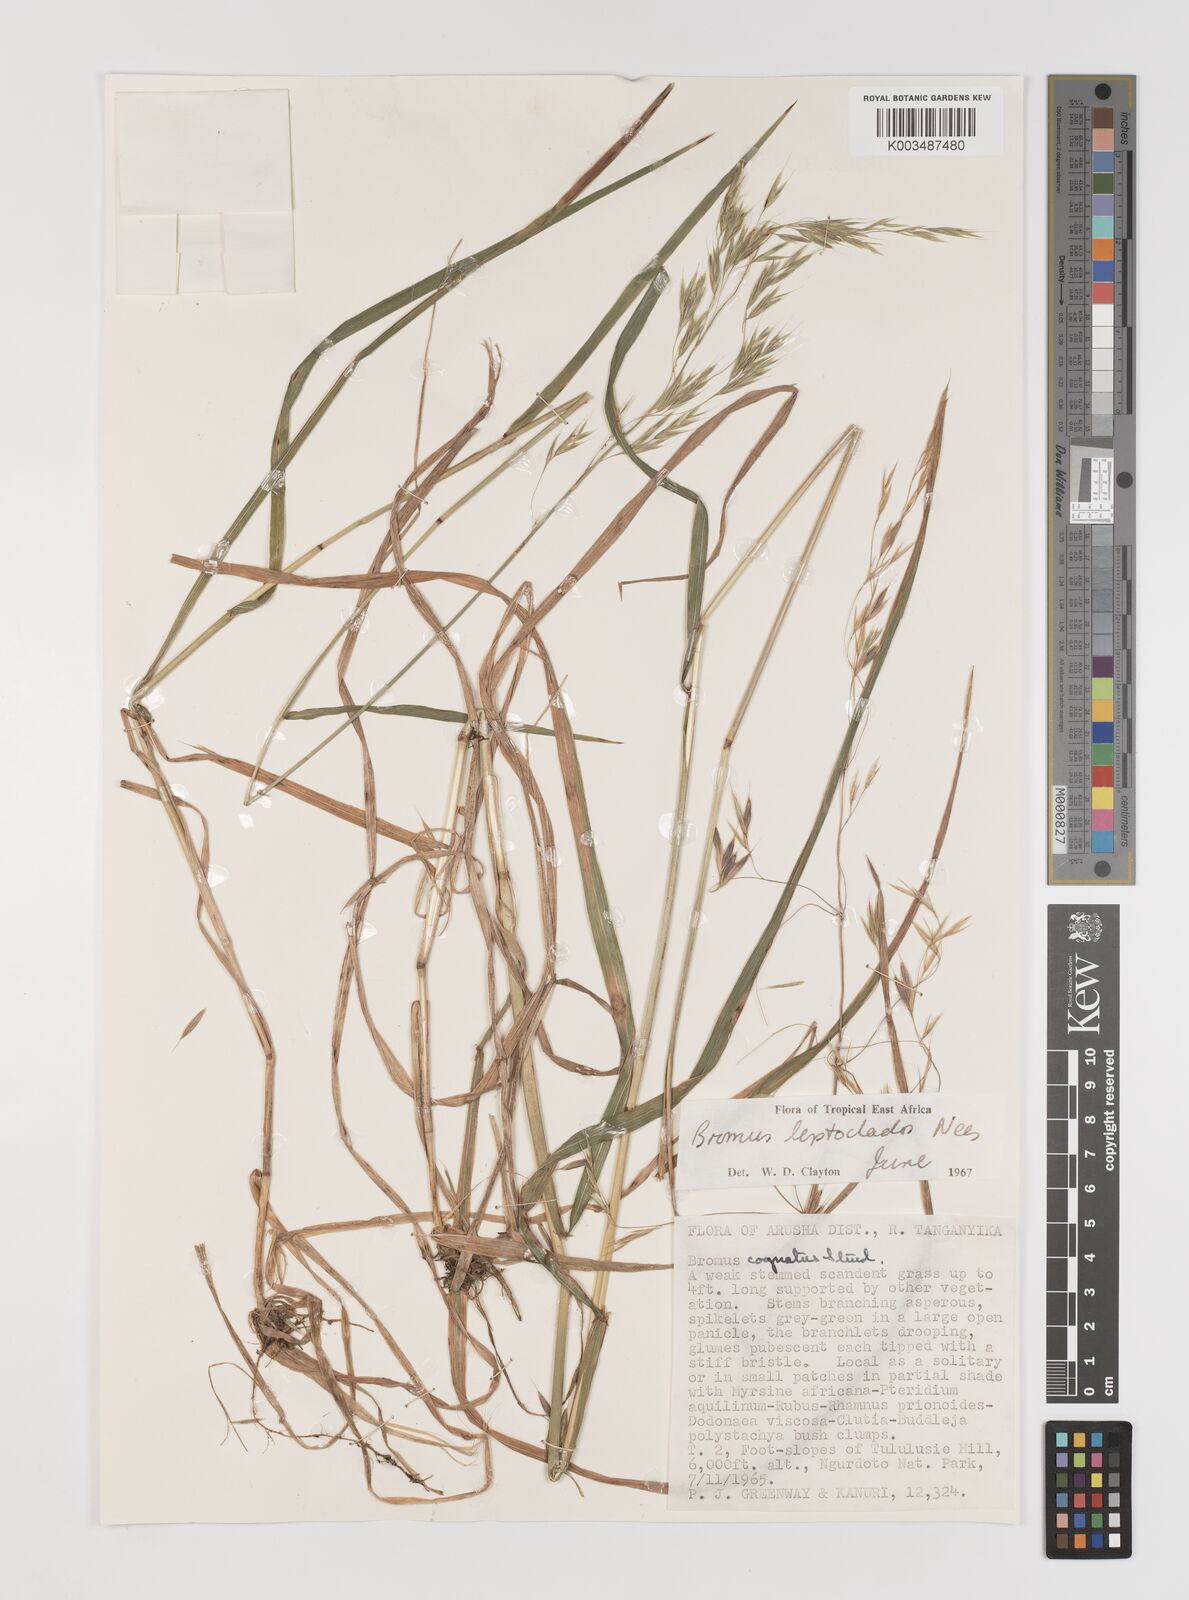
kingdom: Plantae
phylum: Tracheophyta
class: Liliopsida
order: Poales
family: Poaceae
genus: Bromus
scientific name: Bromus leptoclados
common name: Mountain bromegrass
